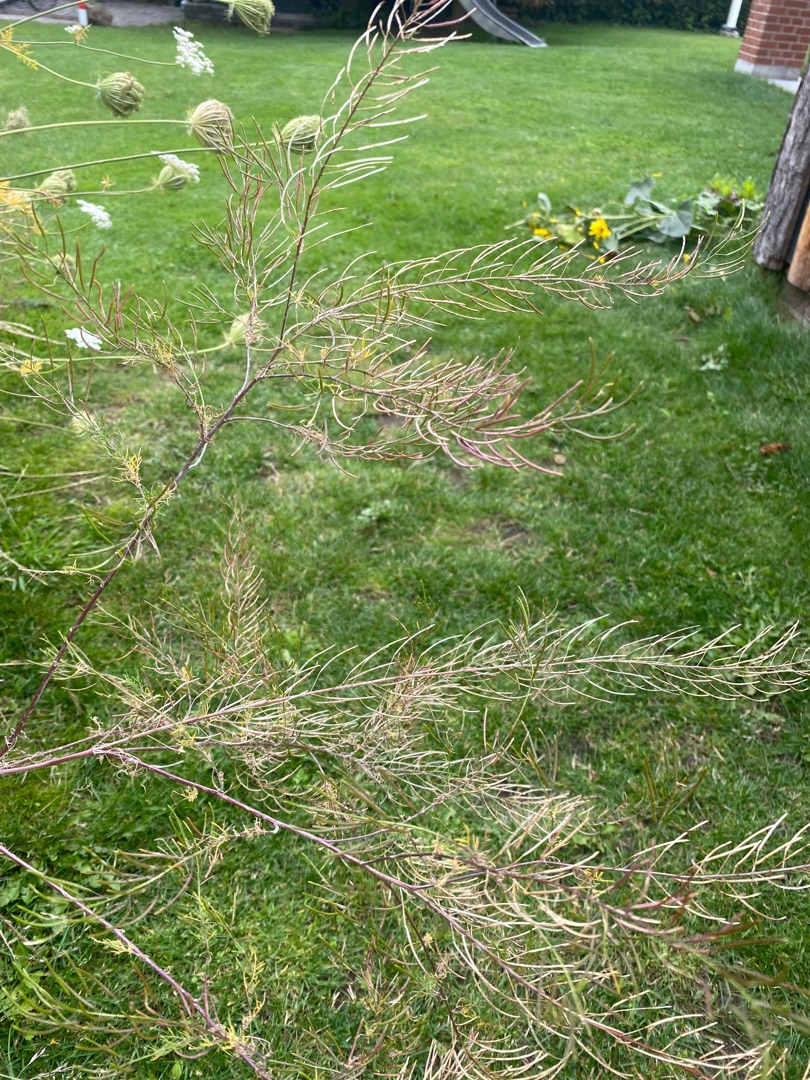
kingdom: Plantae
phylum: Tracheophyta
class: Magnoliopsida
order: Brassicales
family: Brassicaceae
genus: Descurainia
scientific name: Descurainia sophia
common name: Finbladet vejsennep
